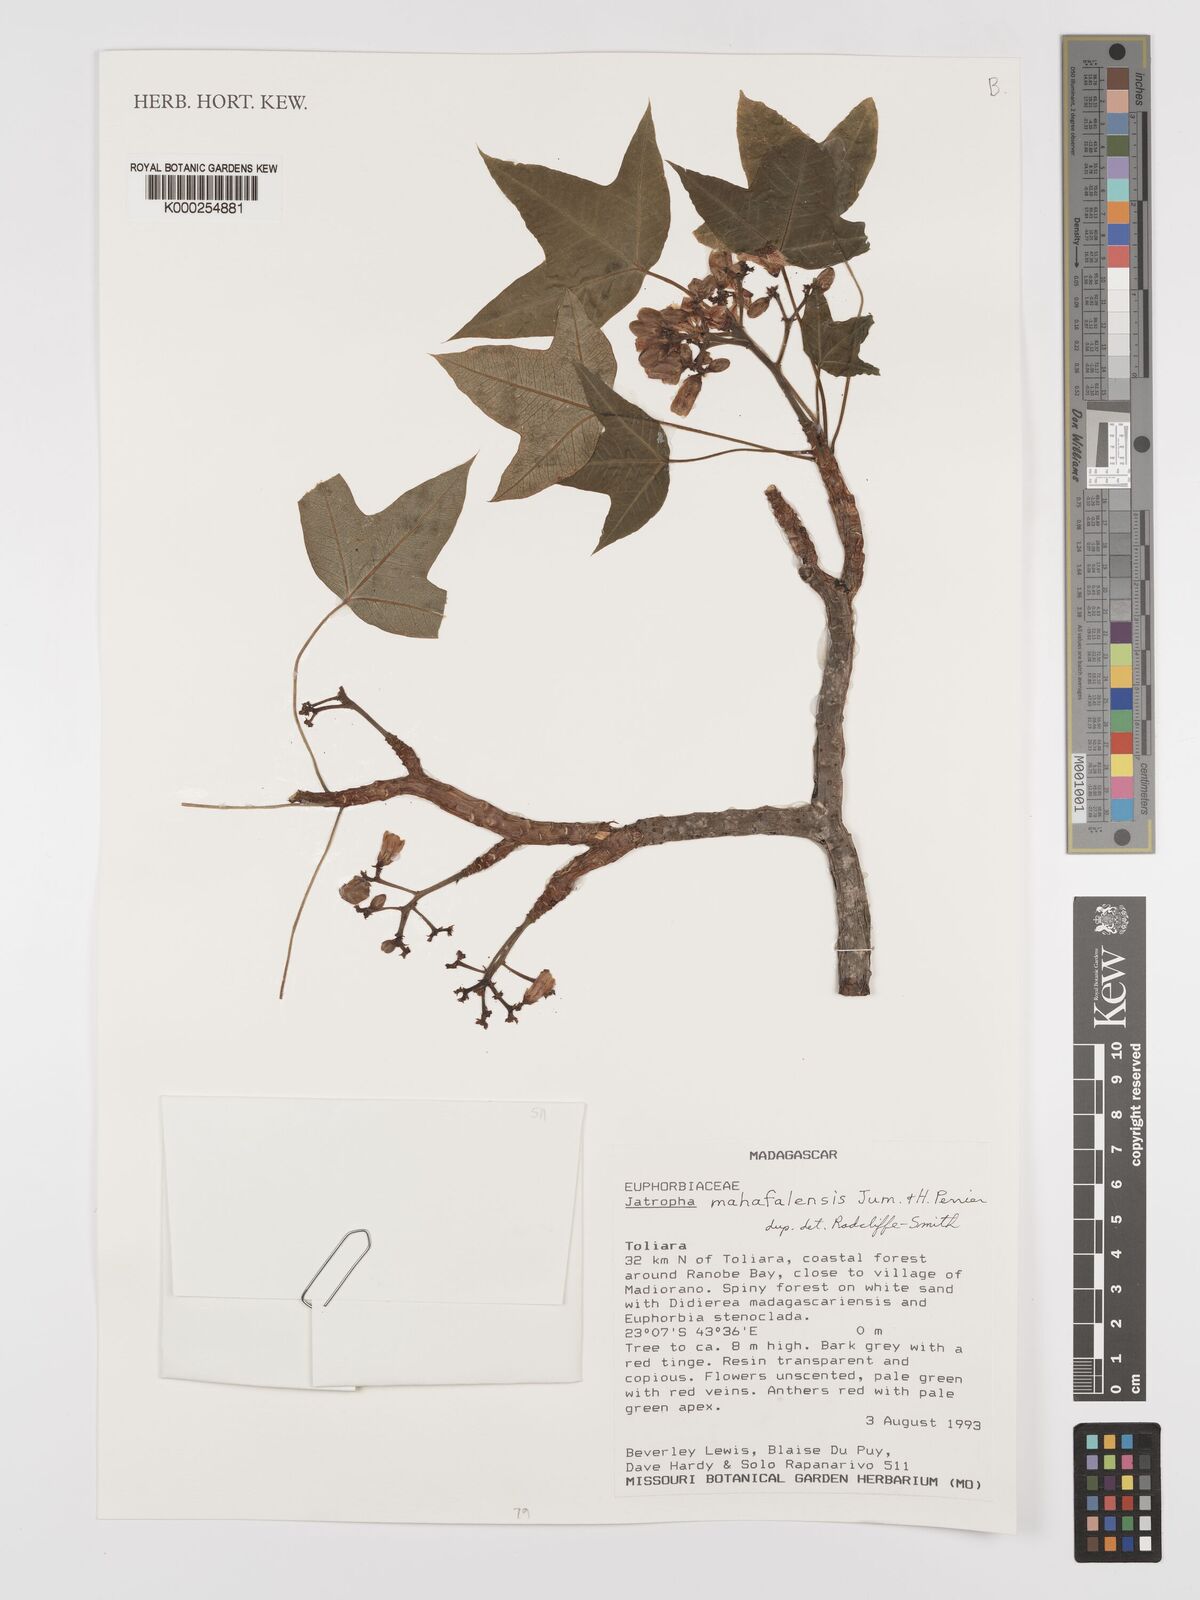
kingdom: Plantae
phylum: Tracheophyta
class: Magnoliopsida
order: Malpighiales
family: Euphorbiaceae
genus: Jatropha
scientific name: Jatropha mahafalensis
